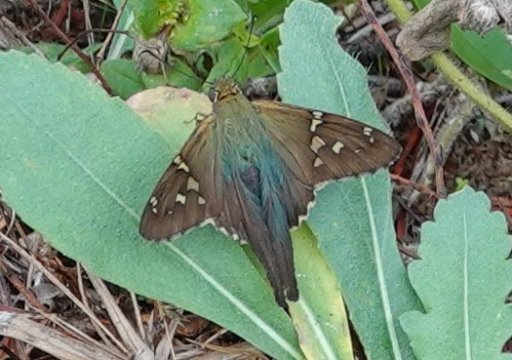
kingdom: Animalia
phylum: Arthropoda
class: Insecta
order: Lepidoptera
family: Hesperiidae
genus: Urbanus
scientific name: Urbanus proteus
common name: Long-tailed Skipper
